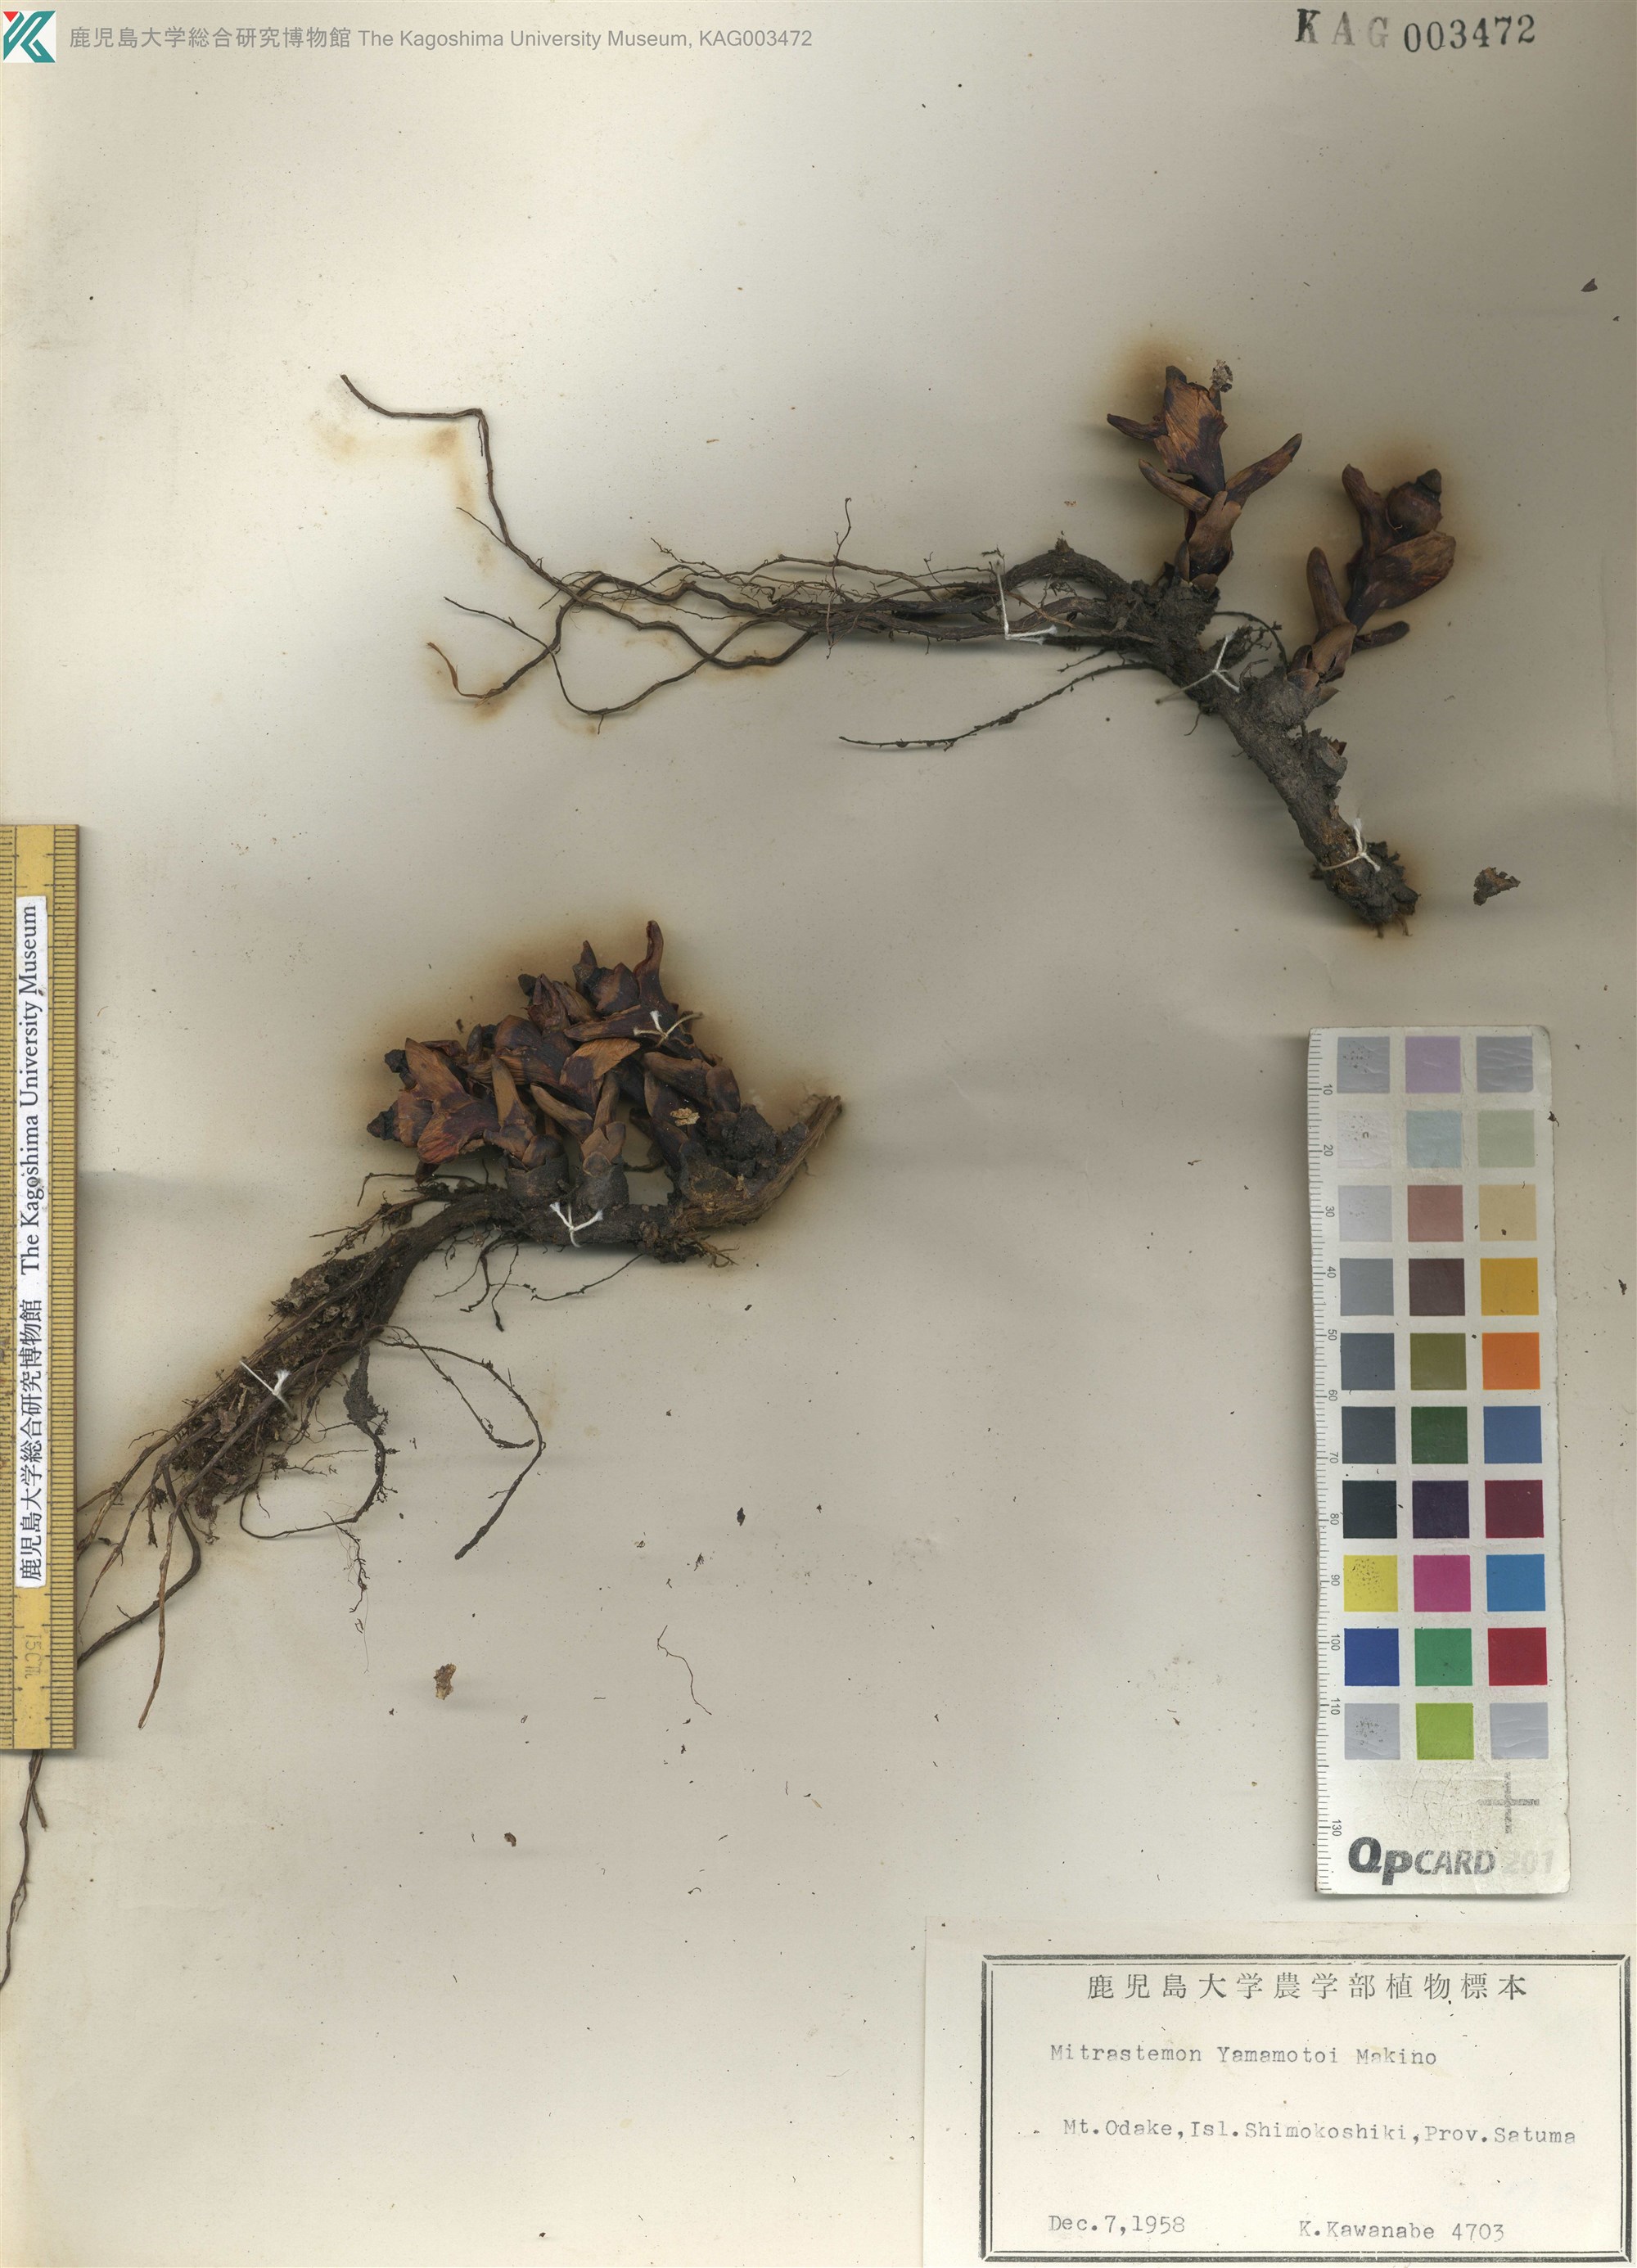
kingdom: Plantae
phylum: Tracheophyta
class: Magnoliopsida
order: Ericales
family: Mitrastemonaceae
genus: Mitrastemon
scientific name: Mitrastemon yamamotoi
